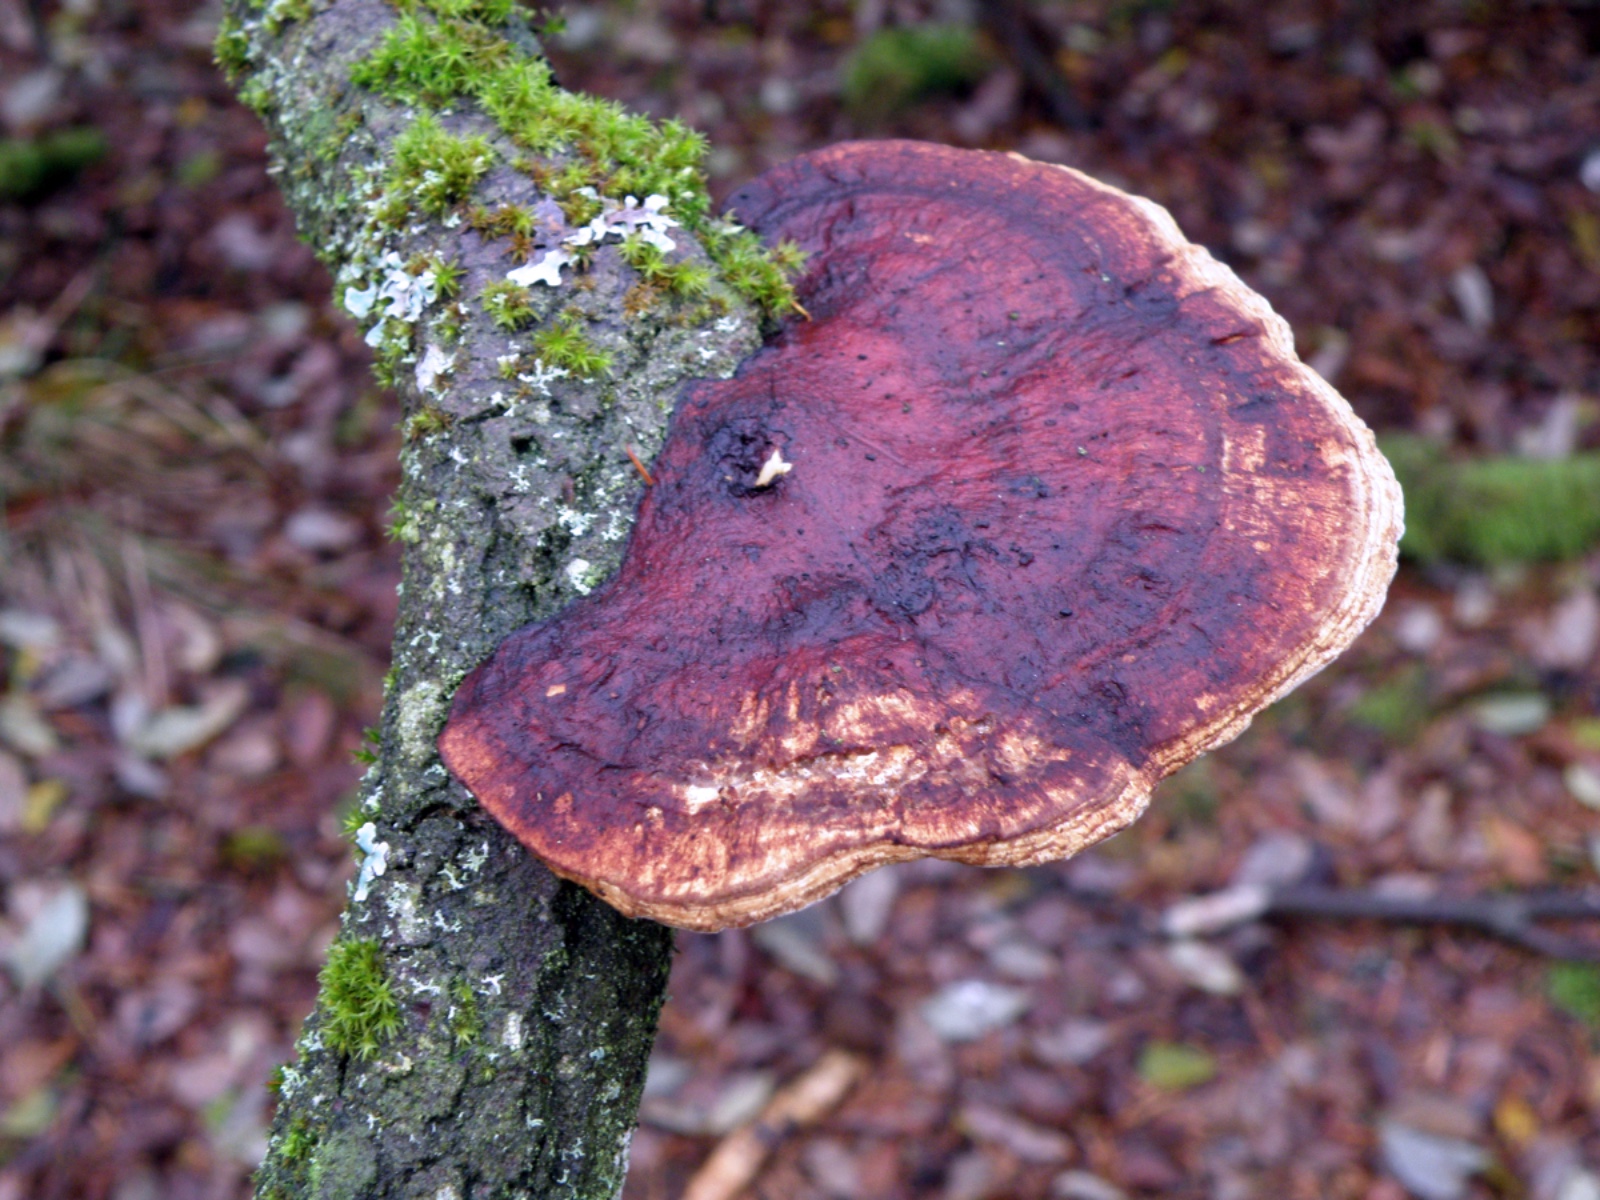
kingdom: Fungi
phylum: Basidiomycota
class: Agaricomycetes
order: Polyporales
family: Polyporaceae
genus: Daedaleopsis
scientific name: Daedaleopsis confragosa
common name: rødmende læderporesvamp
